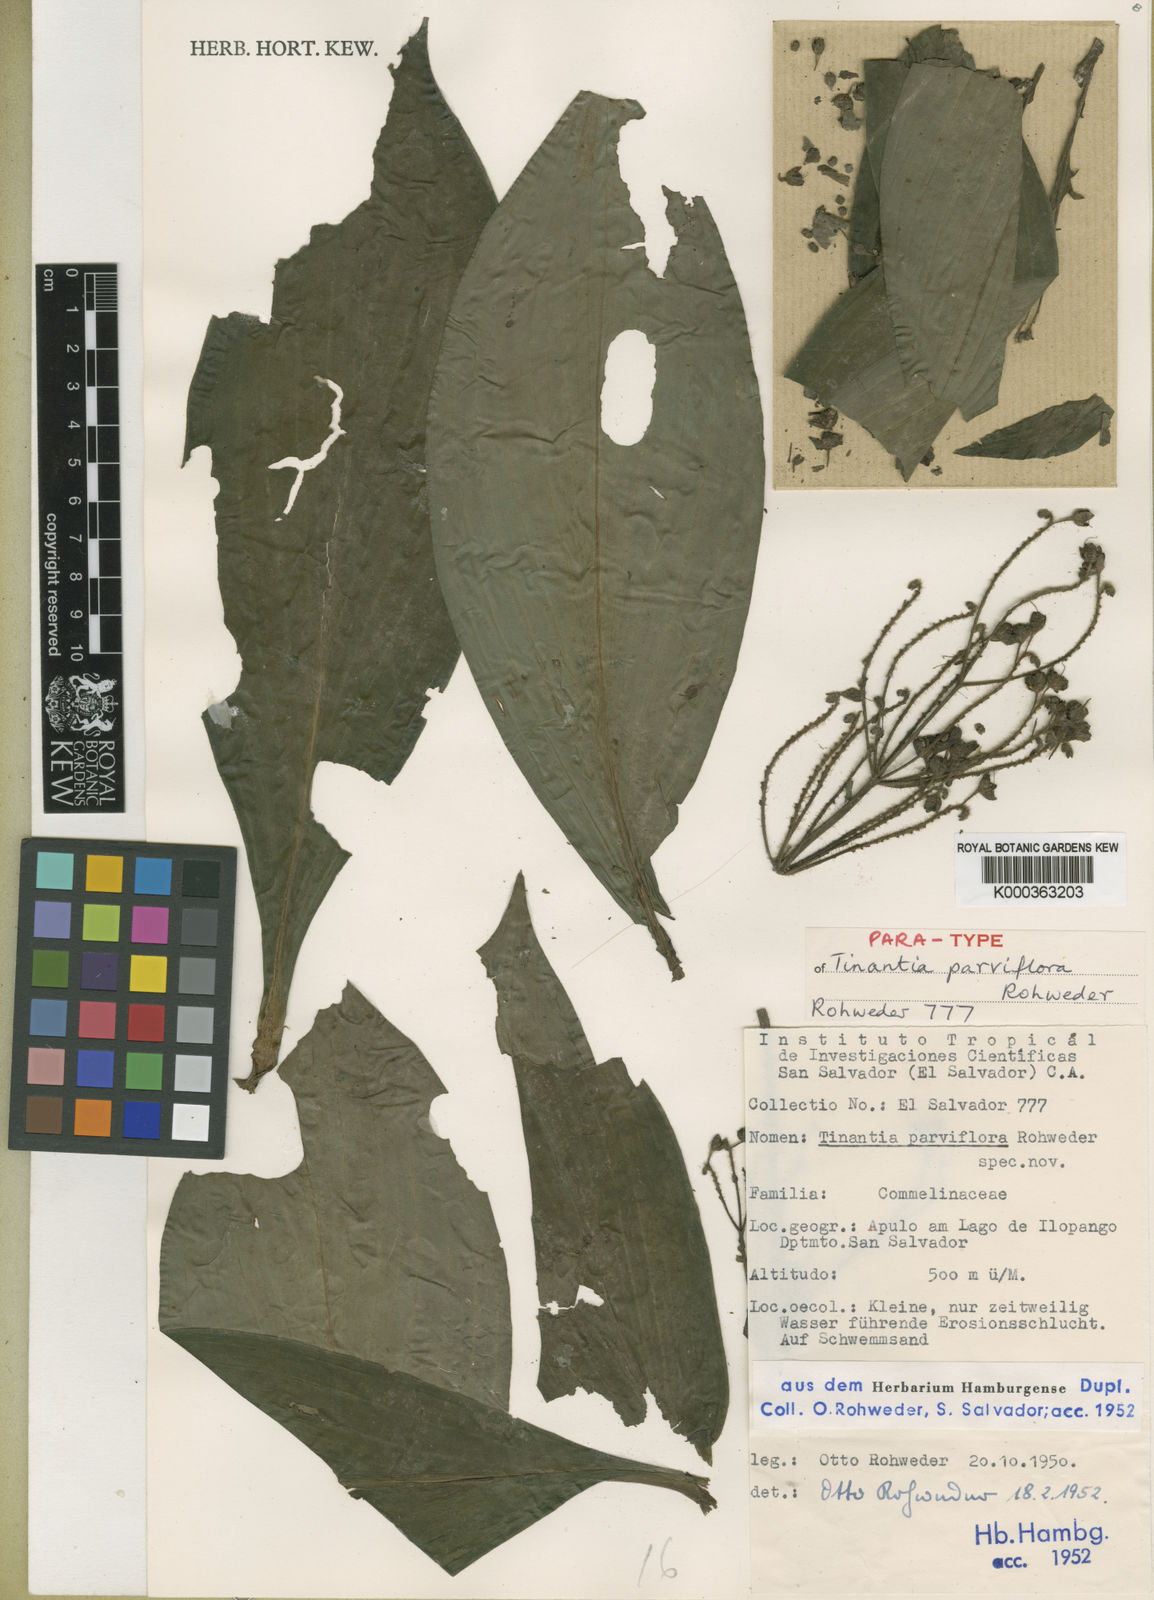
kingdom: Plantae
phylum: Tracheophyta
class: Liliopsida
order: Commelinales
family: Commelinaceae
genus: Tinantia
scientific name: Tinantia parviflora
